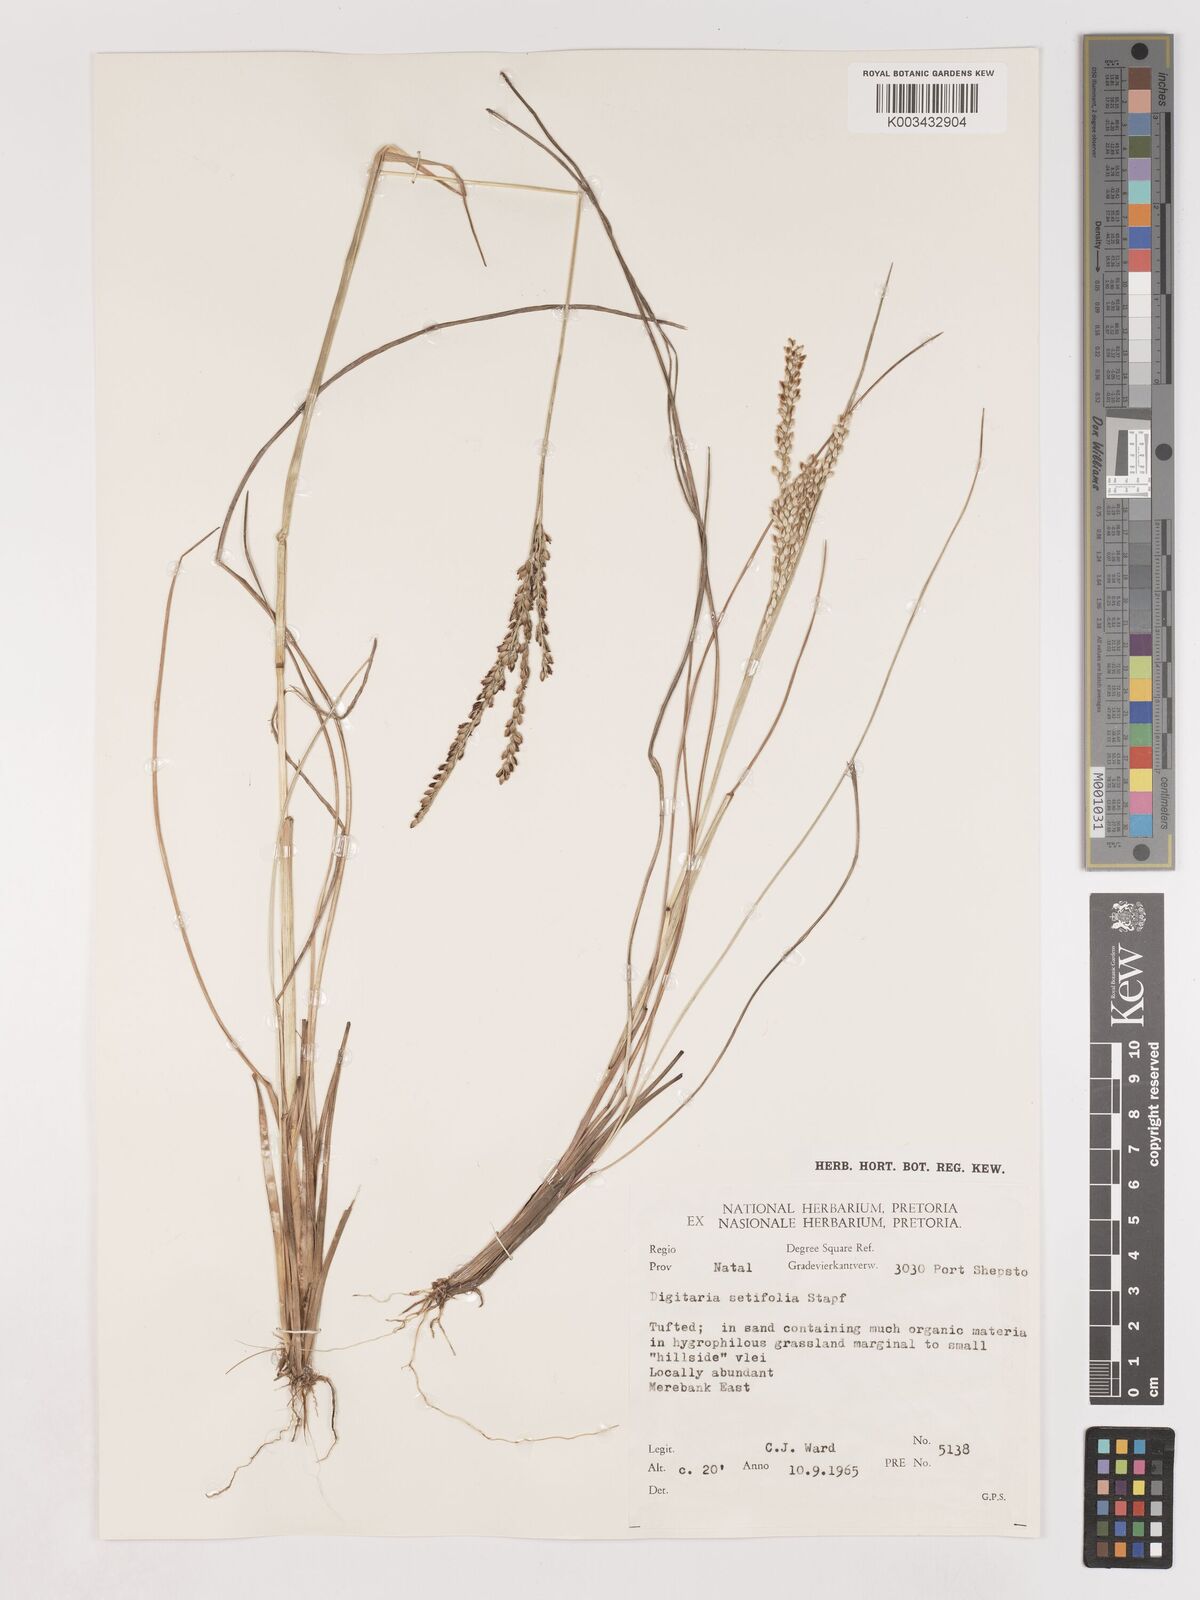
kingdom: Plantae
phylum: Tracheophyta
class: Liliopsida
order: Poales
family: Poaceae
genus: Digitaria
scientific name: Digitaria setifolia
